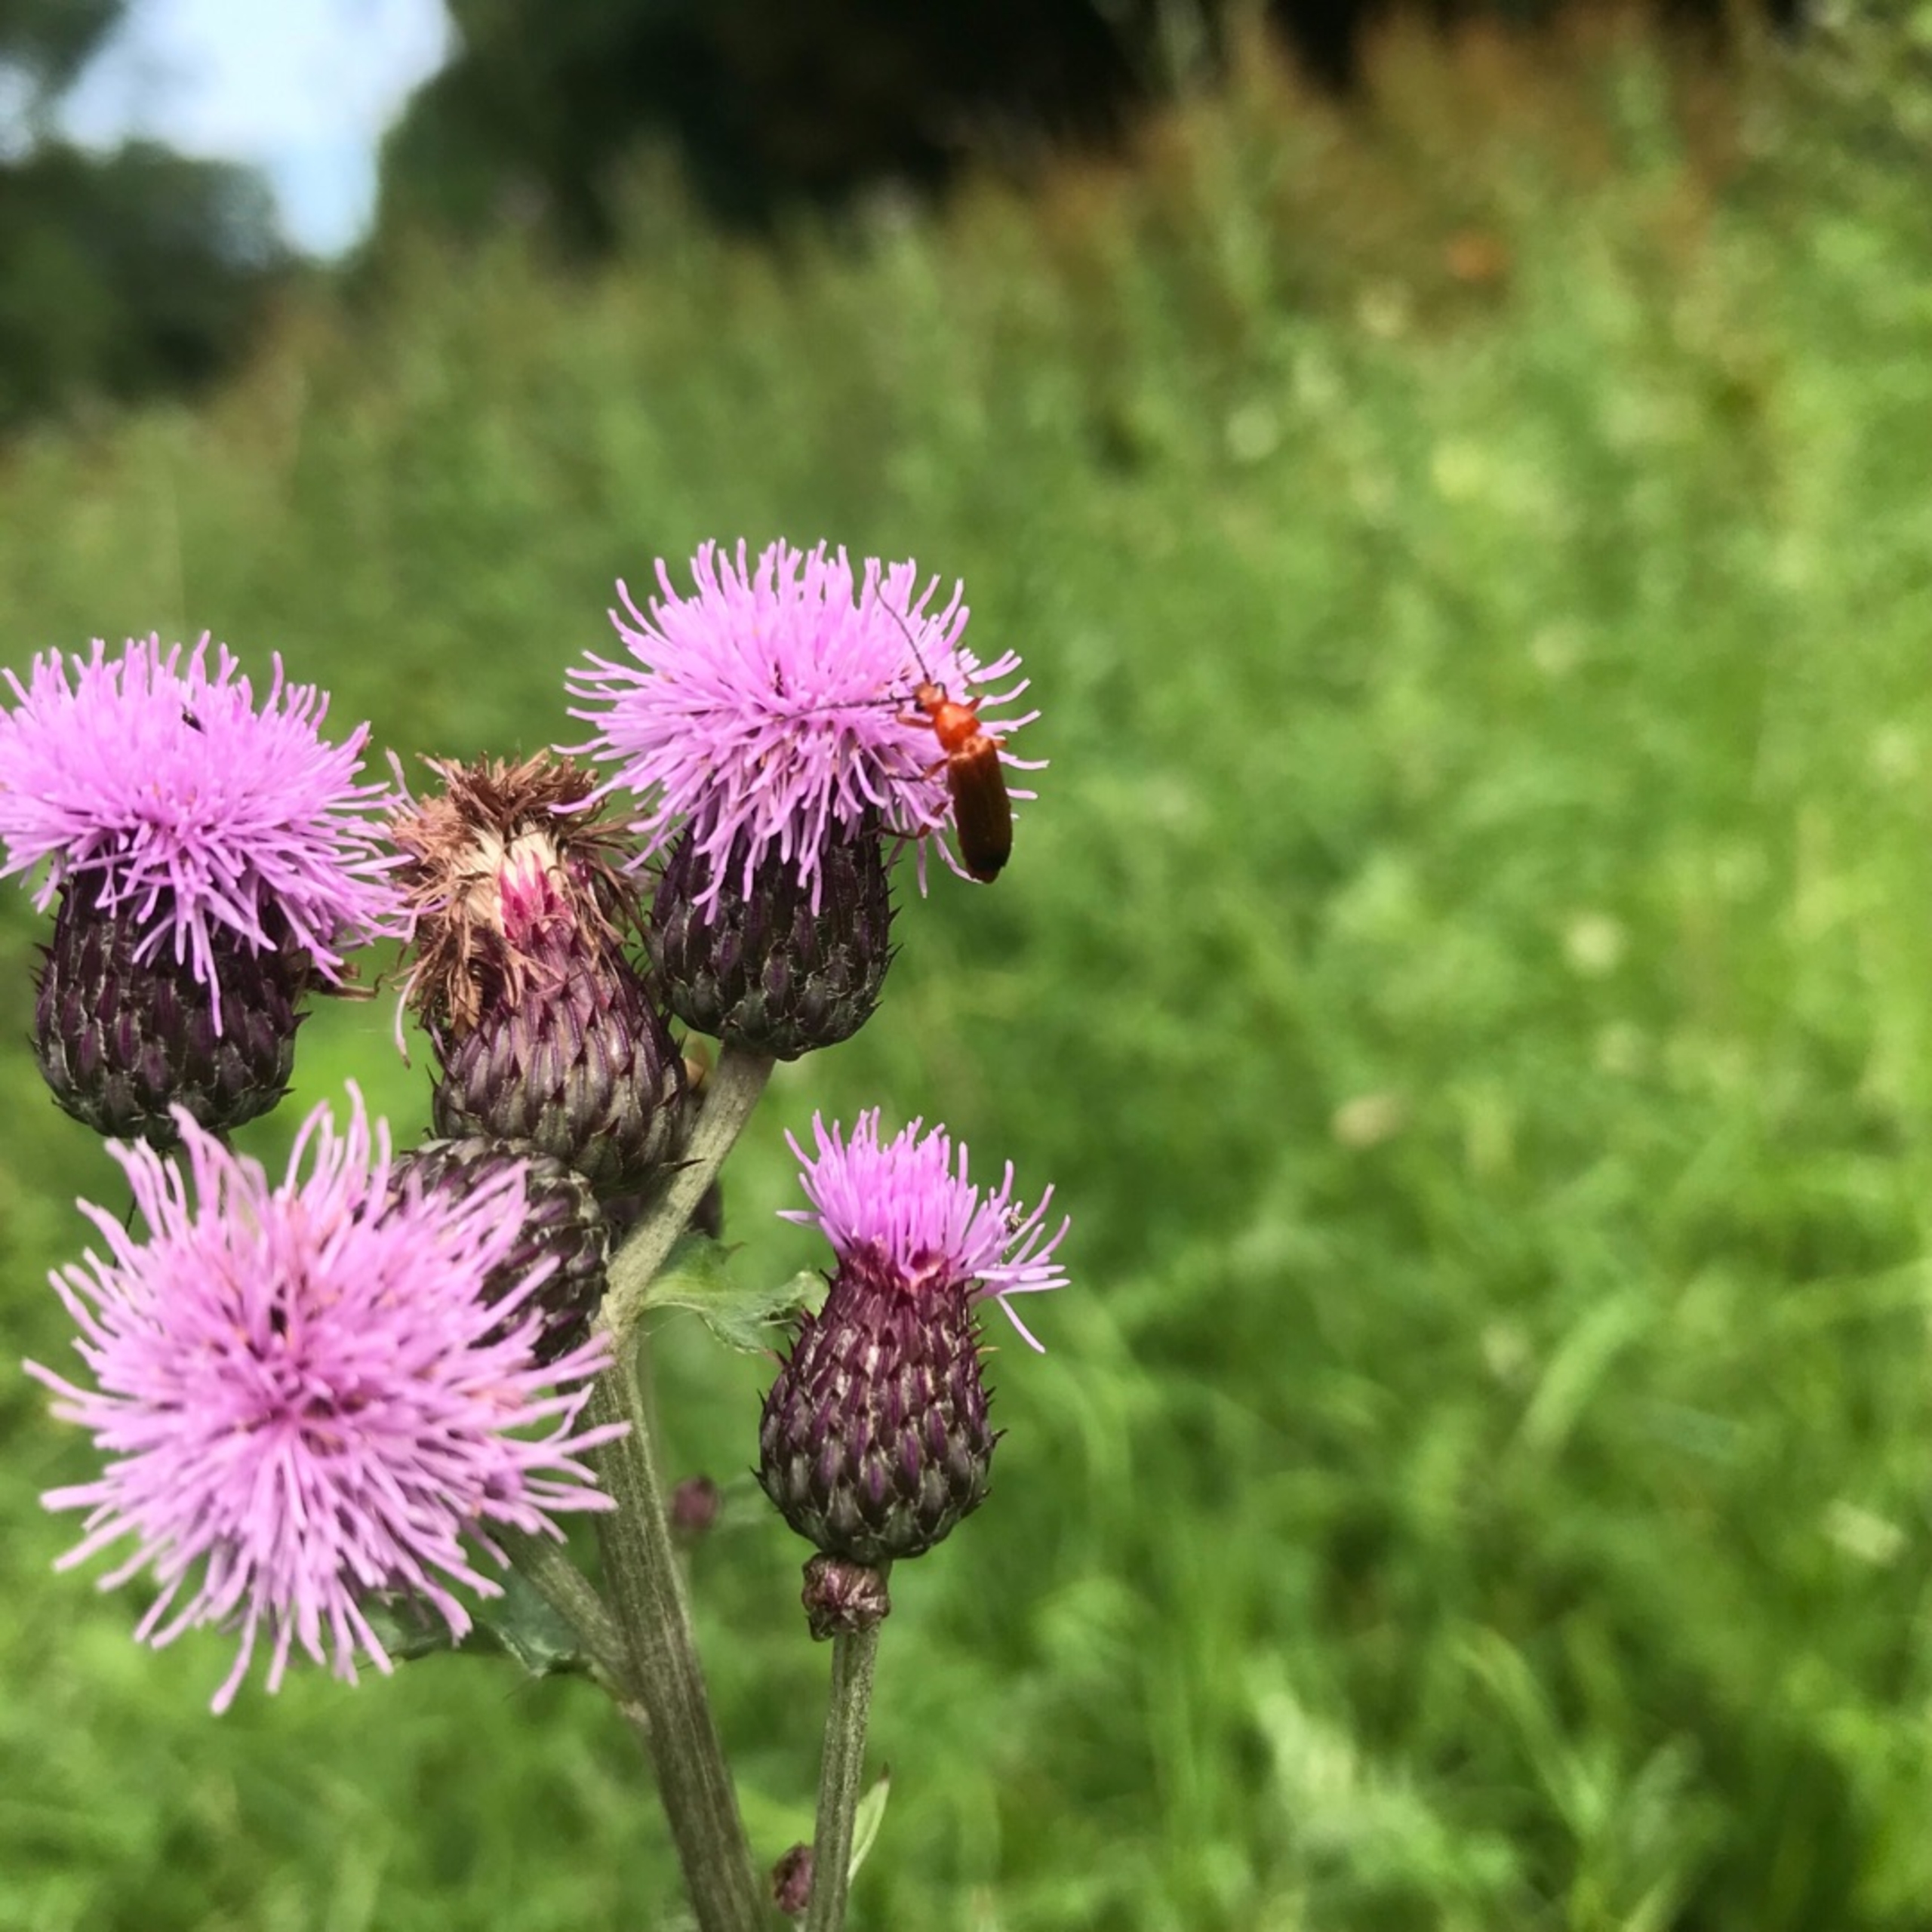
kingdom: Animalia
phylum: Arthropoda
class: Insecta
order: Coleoptera
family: Cantharidae
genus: Rhagonycha
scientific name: Rhagonycha fulva
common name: Præstebille
